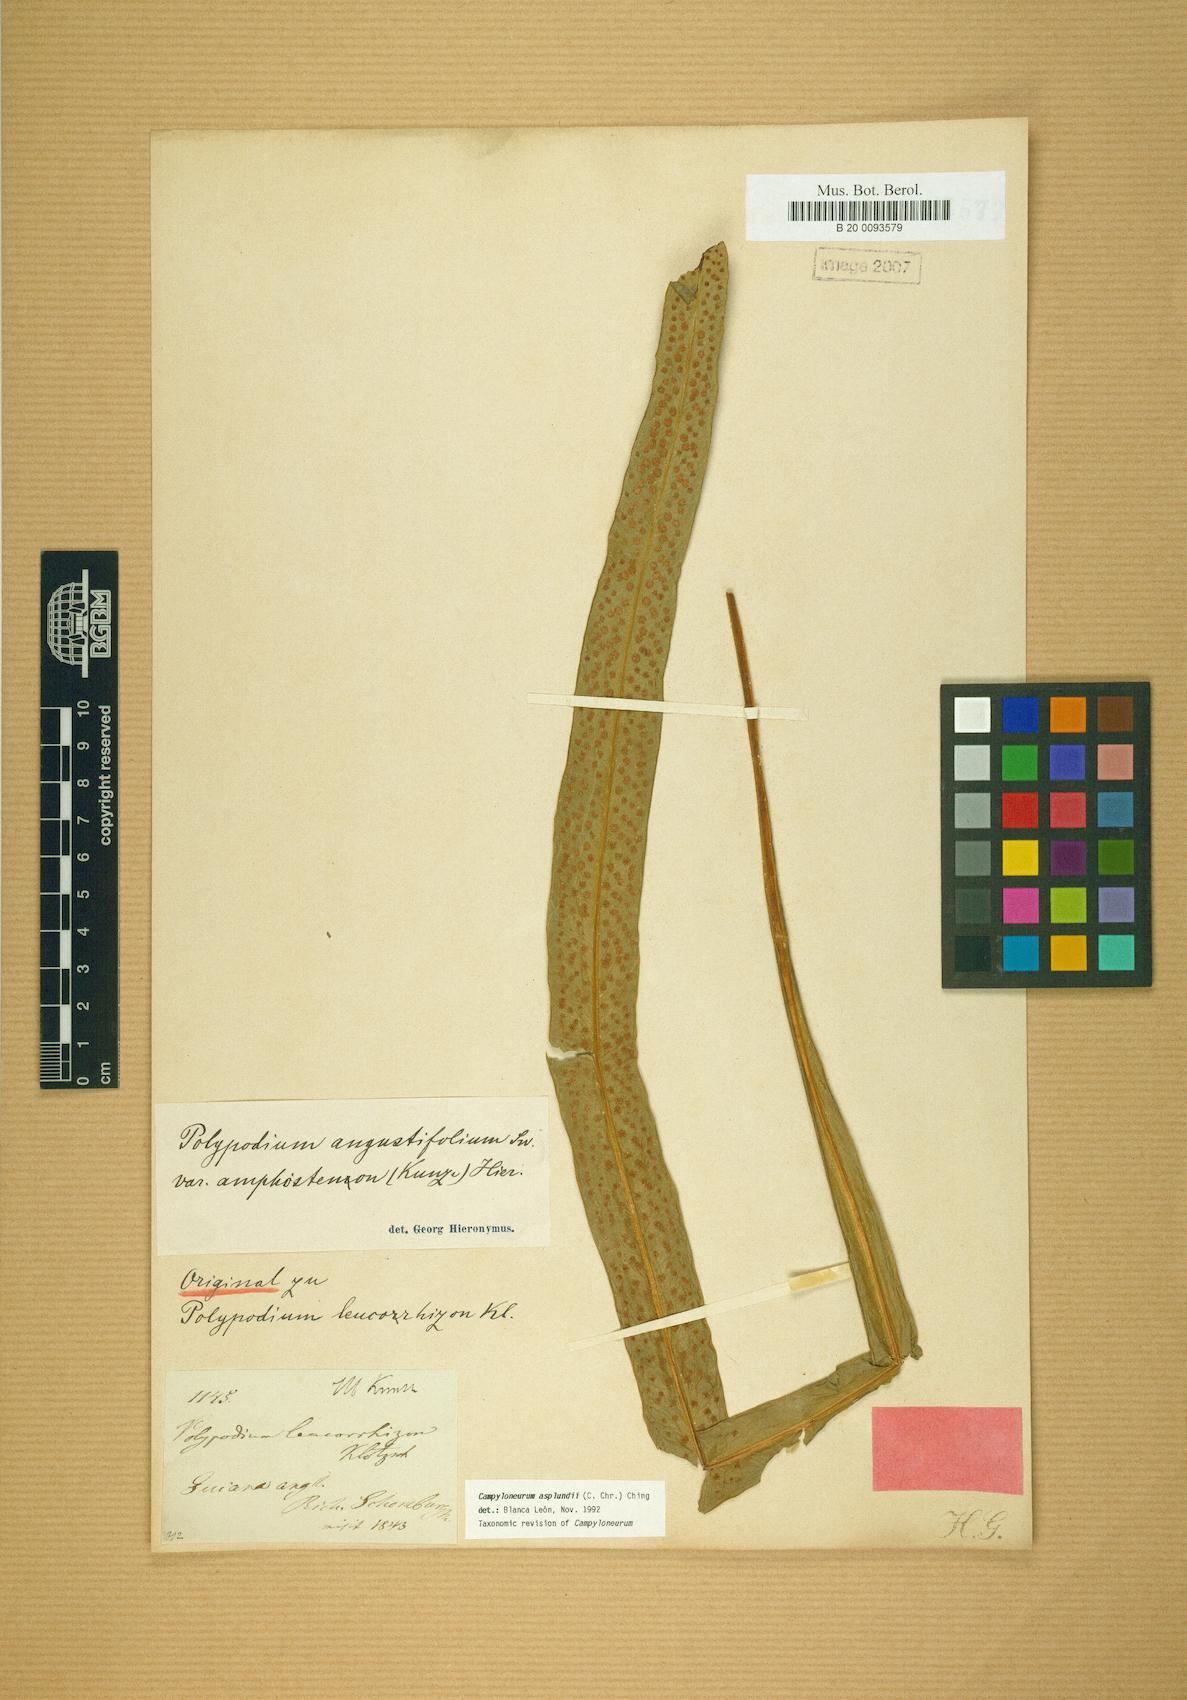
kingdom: Plantae
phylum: Tracheophyta
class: Polypodiopsida
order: Polypodiales
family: Polypodiaceae
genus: Campyloneurum
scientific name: Campyloneurum asplundii
